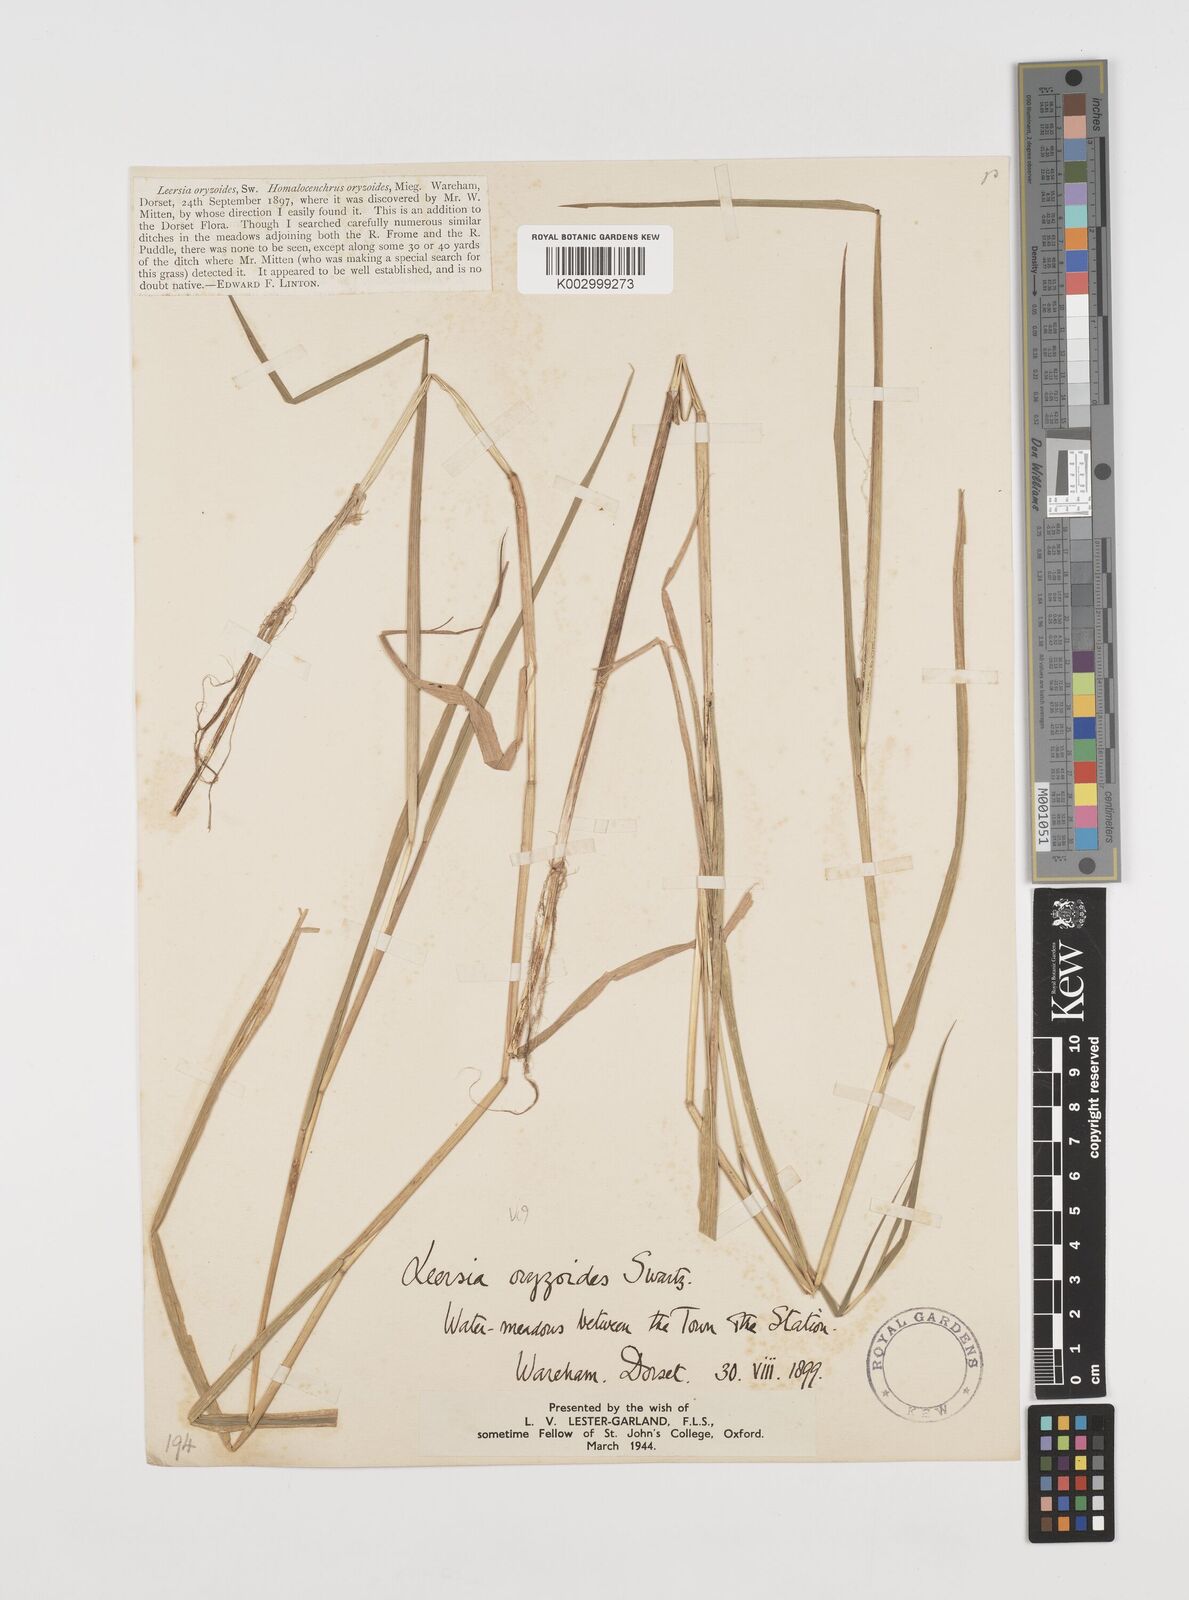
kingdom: Plantae
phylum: Tracheophyta
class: Liliopsida
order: Poales
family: Poaceae
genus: Leersia
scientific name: Leersia oryzoides
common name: Cut-grass
